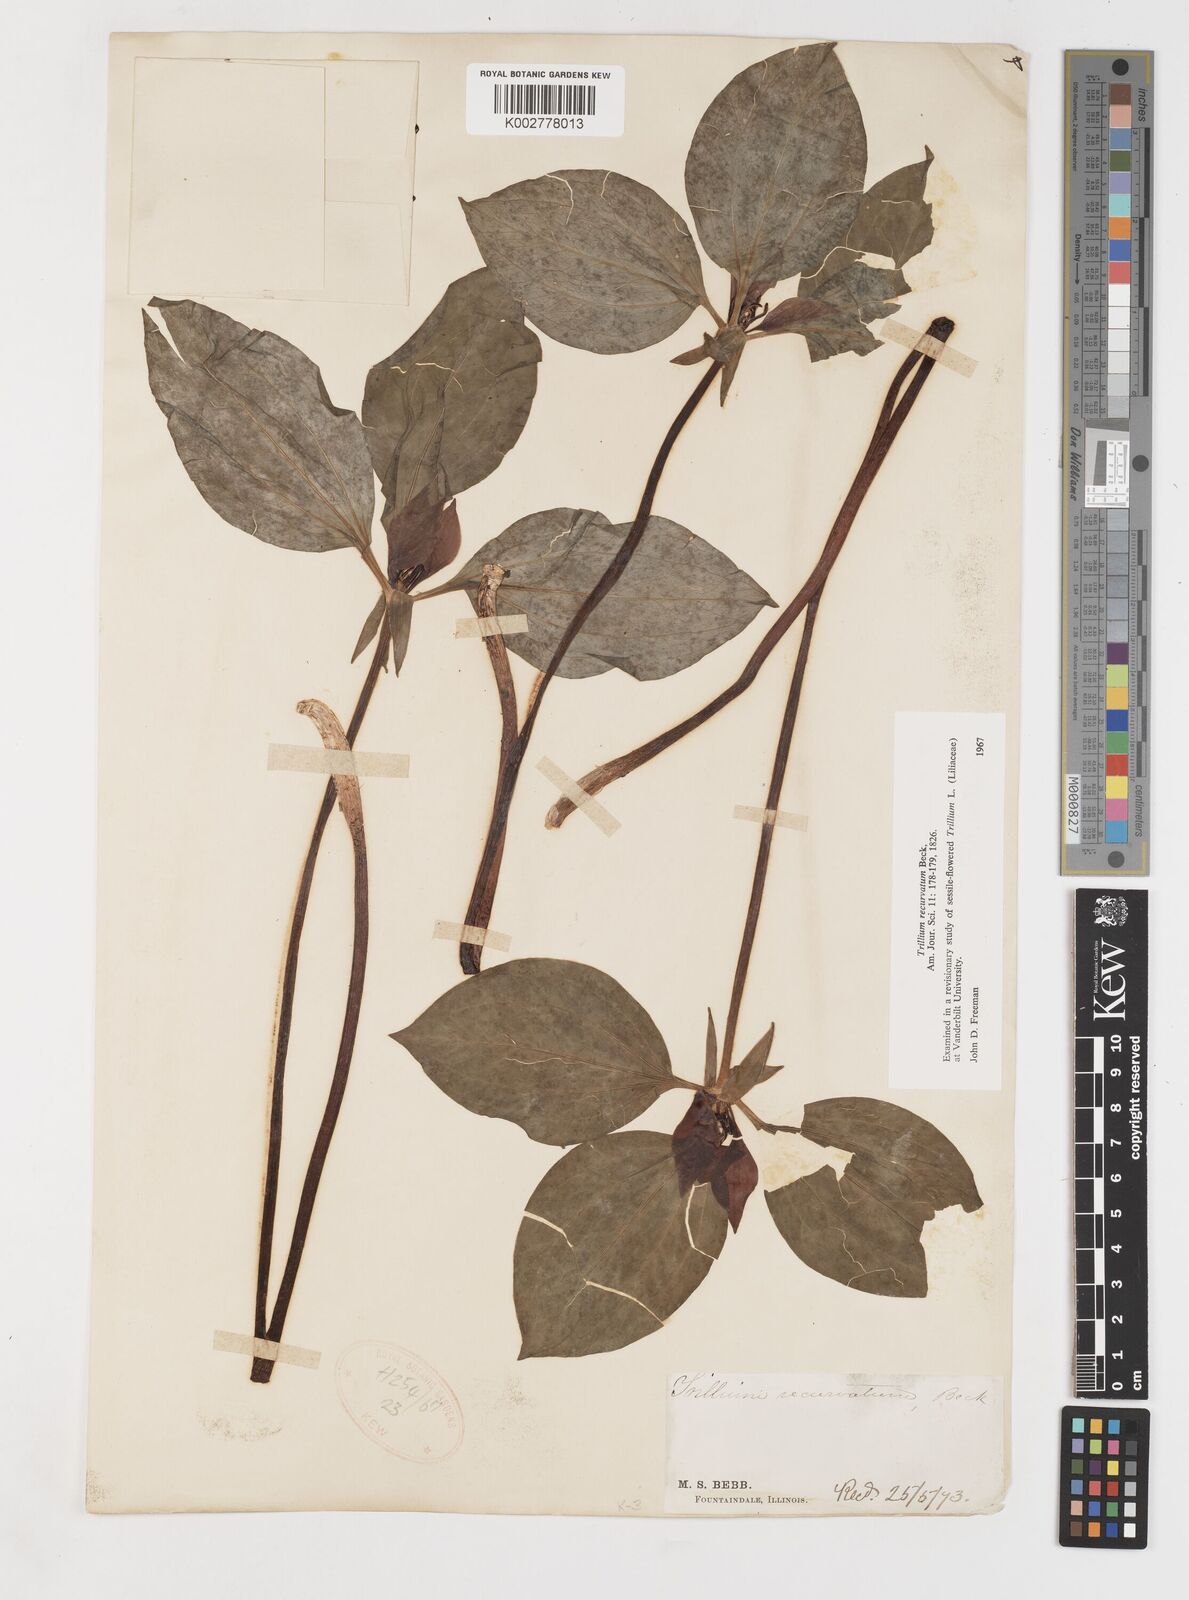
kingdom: Plantae
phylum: Tracheophyta
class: Liliopsida
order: Liliales
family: Melanthiaceae
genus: Trillium
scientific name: Trillium recurvatum
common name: Bloody butcher
